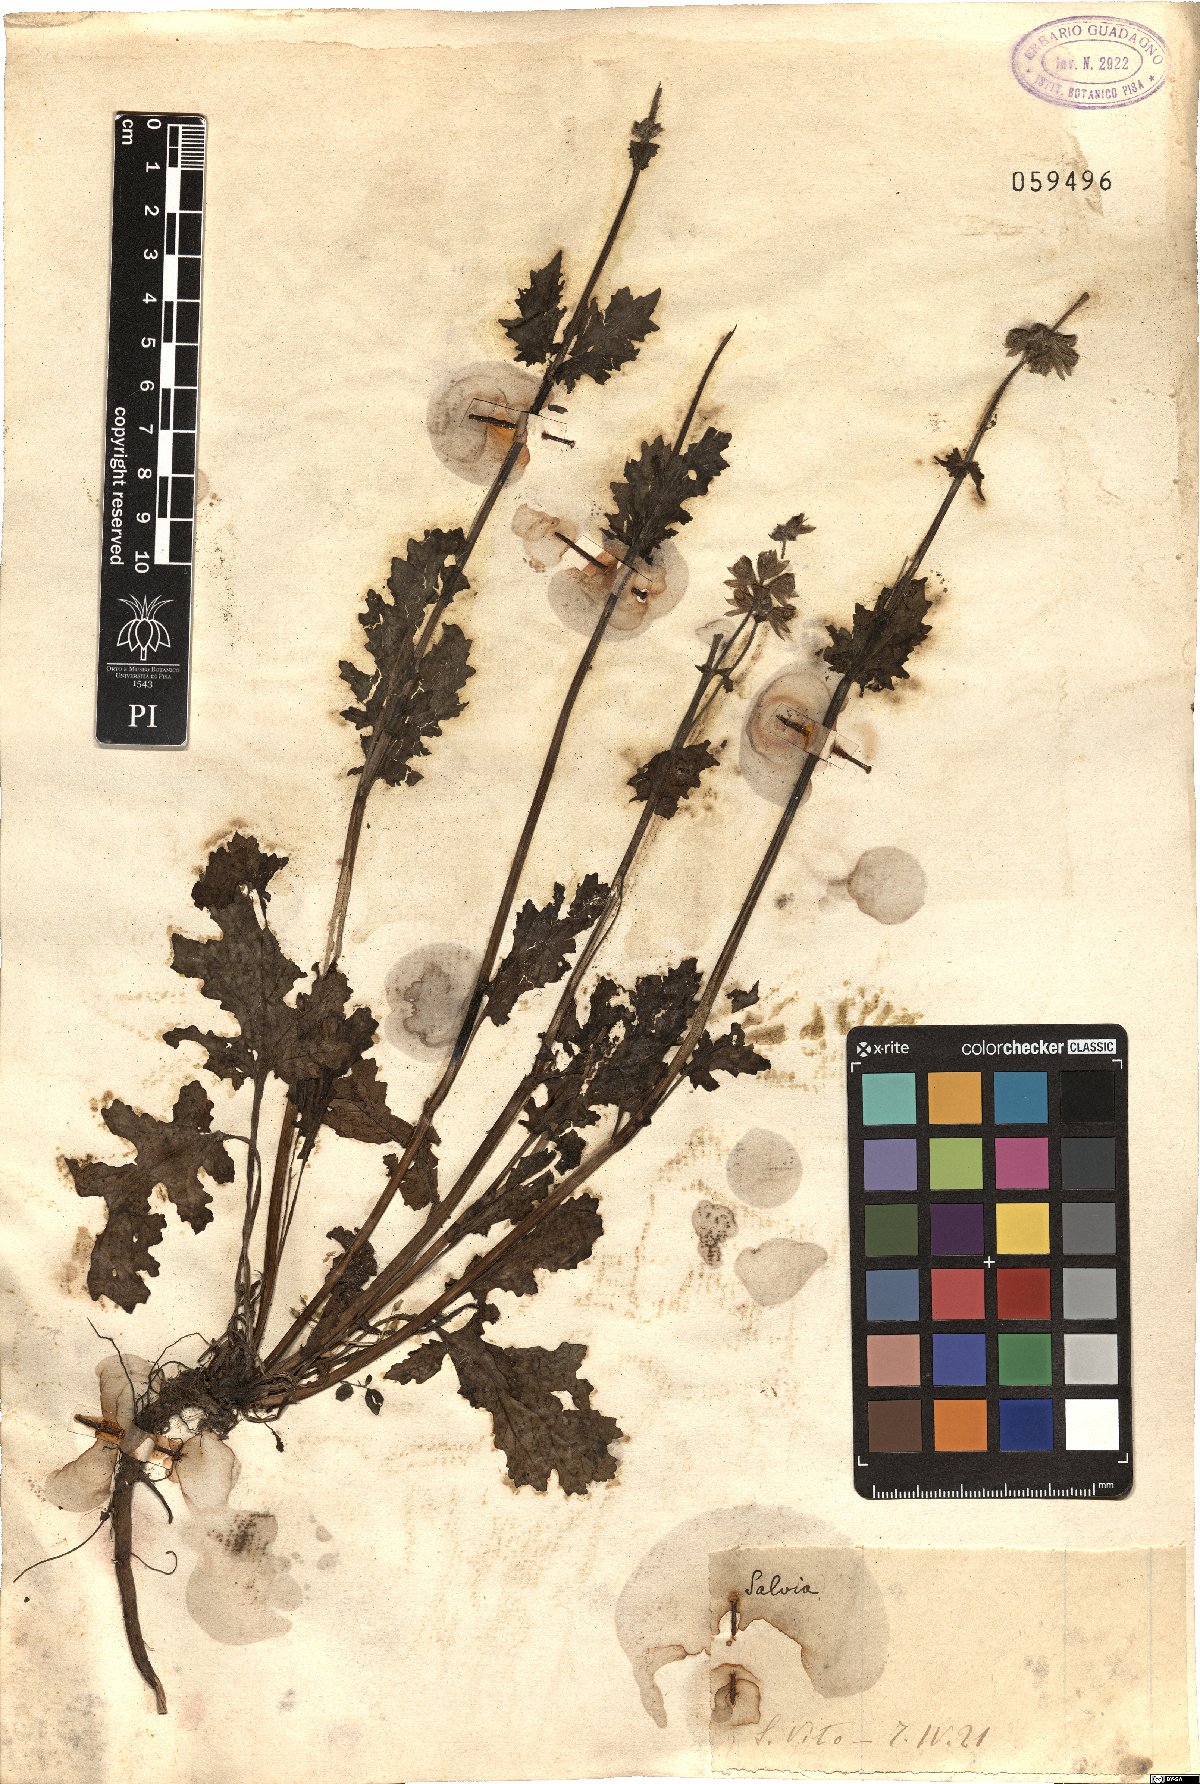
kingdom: Plantae
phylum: Tracheophyta
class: Magnoliopsida
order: Lamiales
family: Lamiaceae
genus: Salvia
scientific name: Salvia
